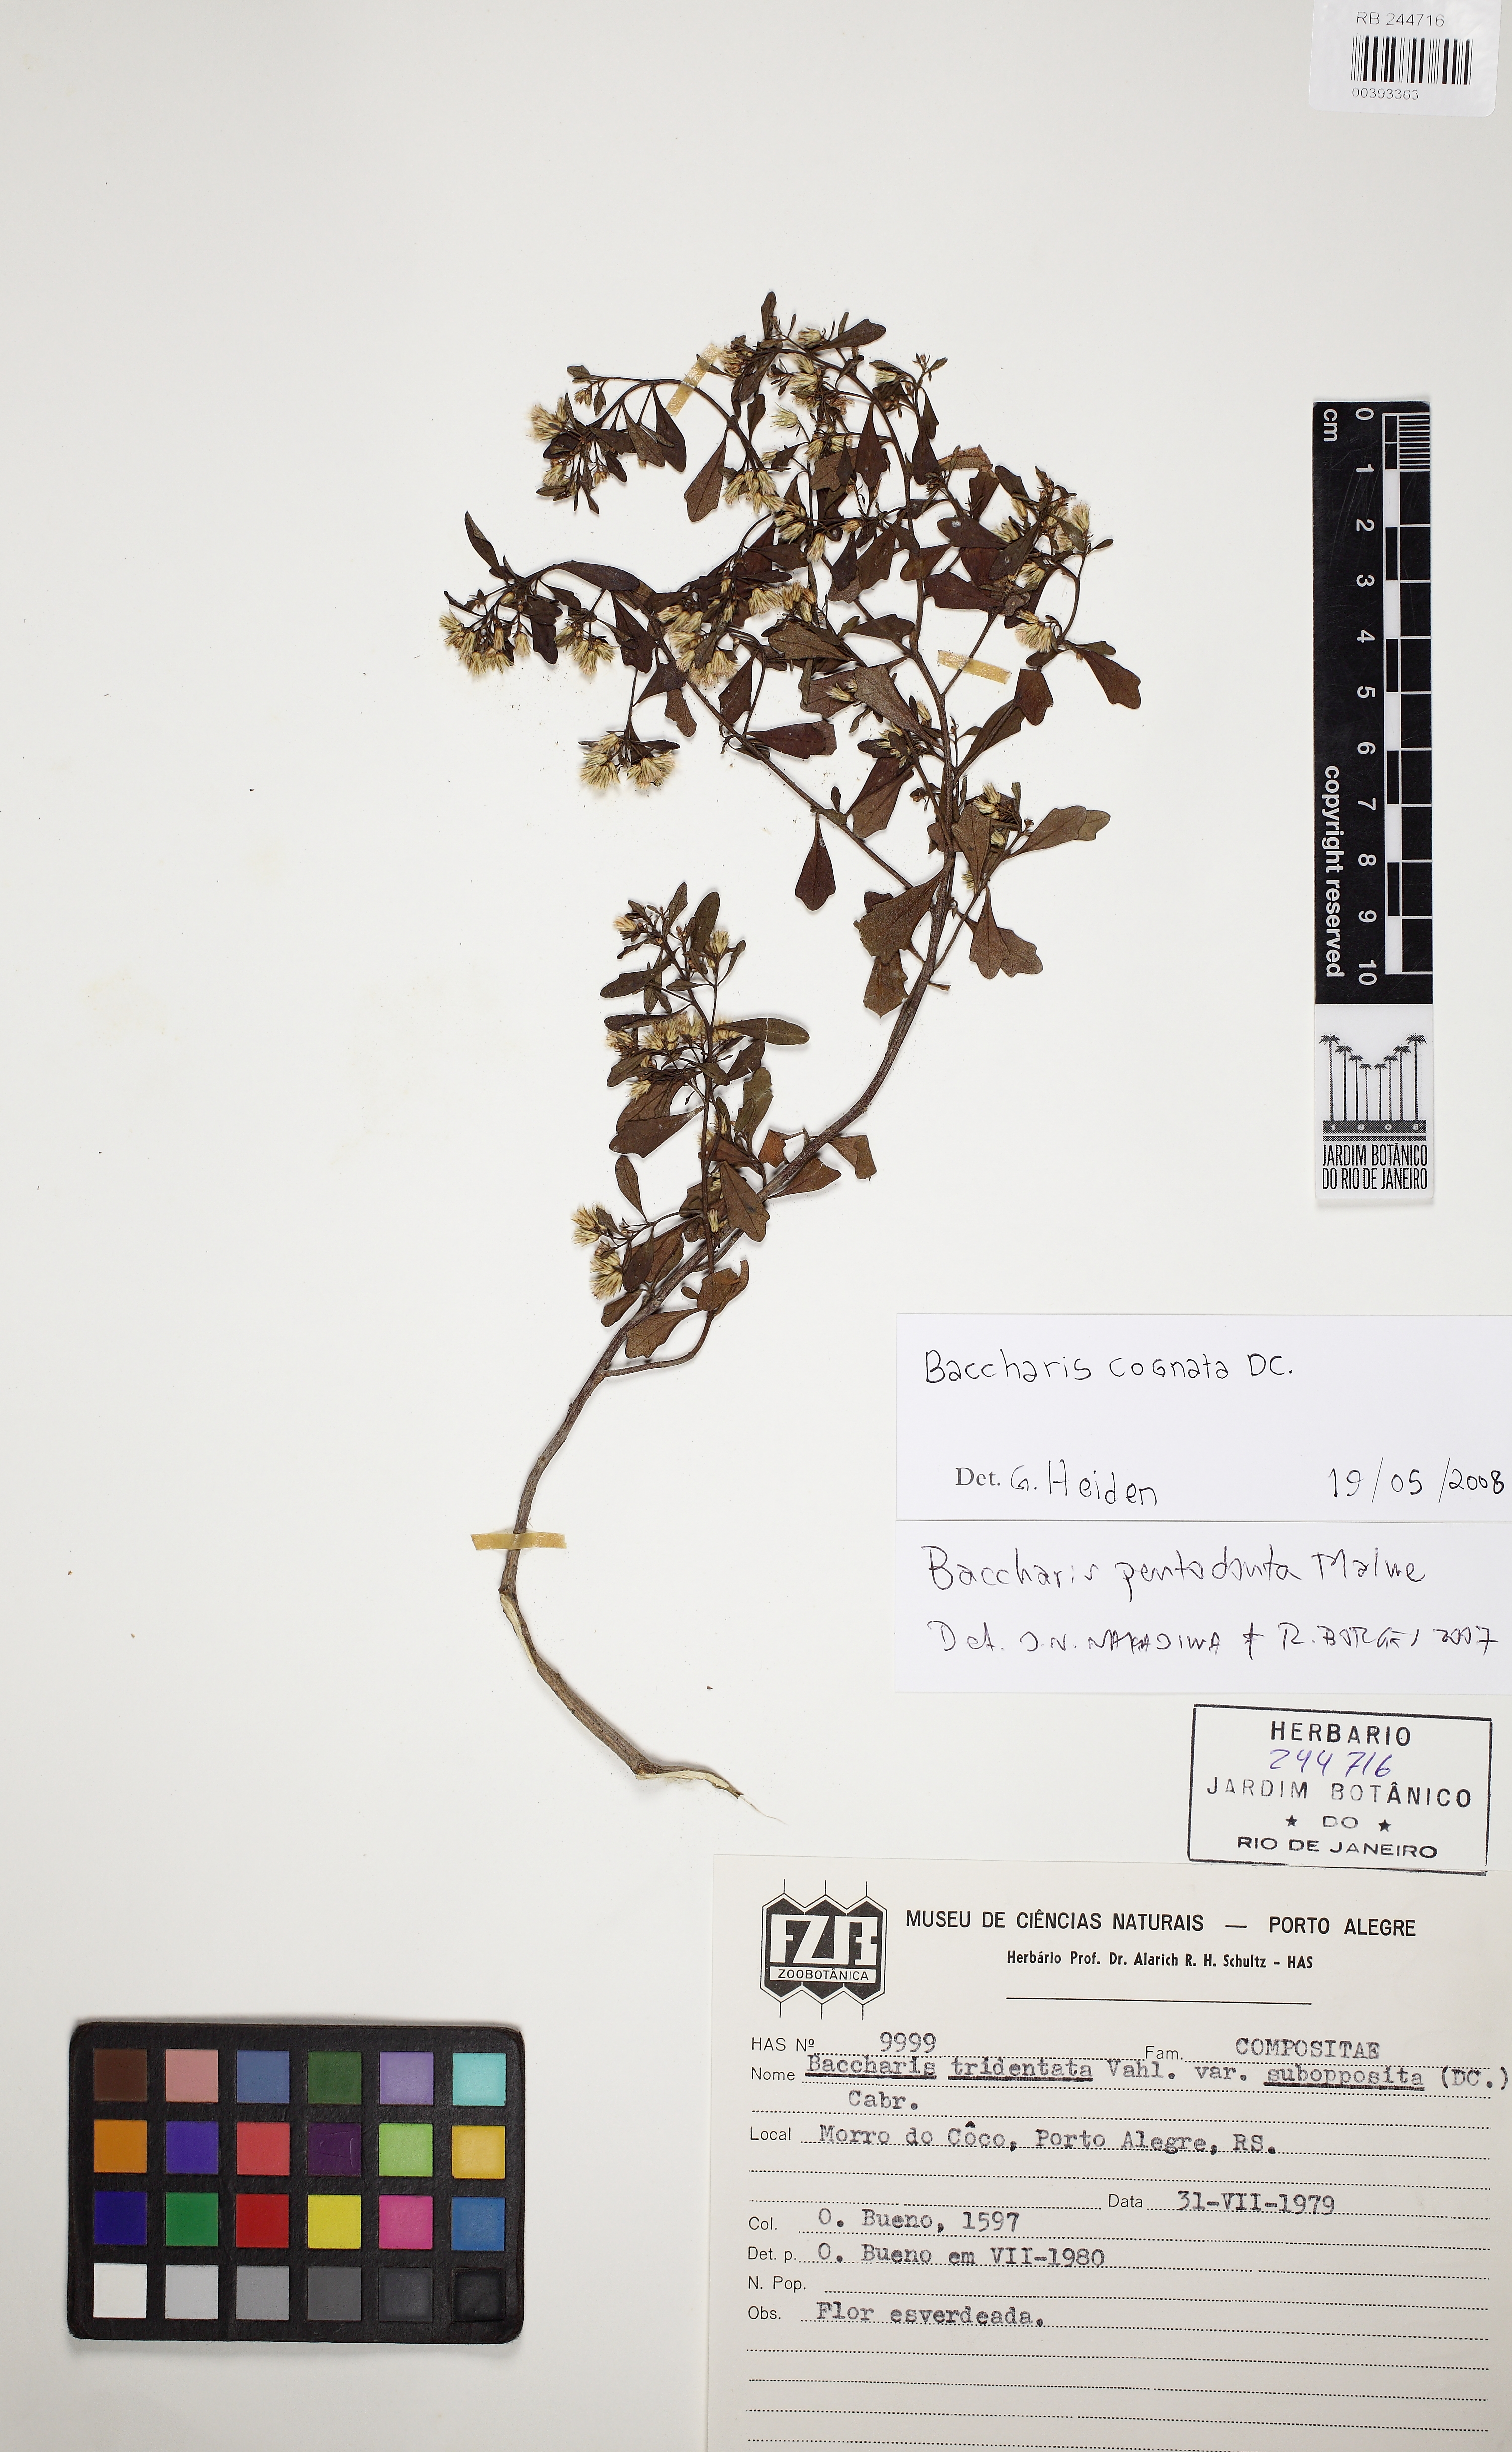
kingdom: Plantae
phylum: Tracheophyta
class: Magnoliopsida
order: Asterales
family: Asteraceae
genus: Baccharis
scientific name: Baccharis cognata
